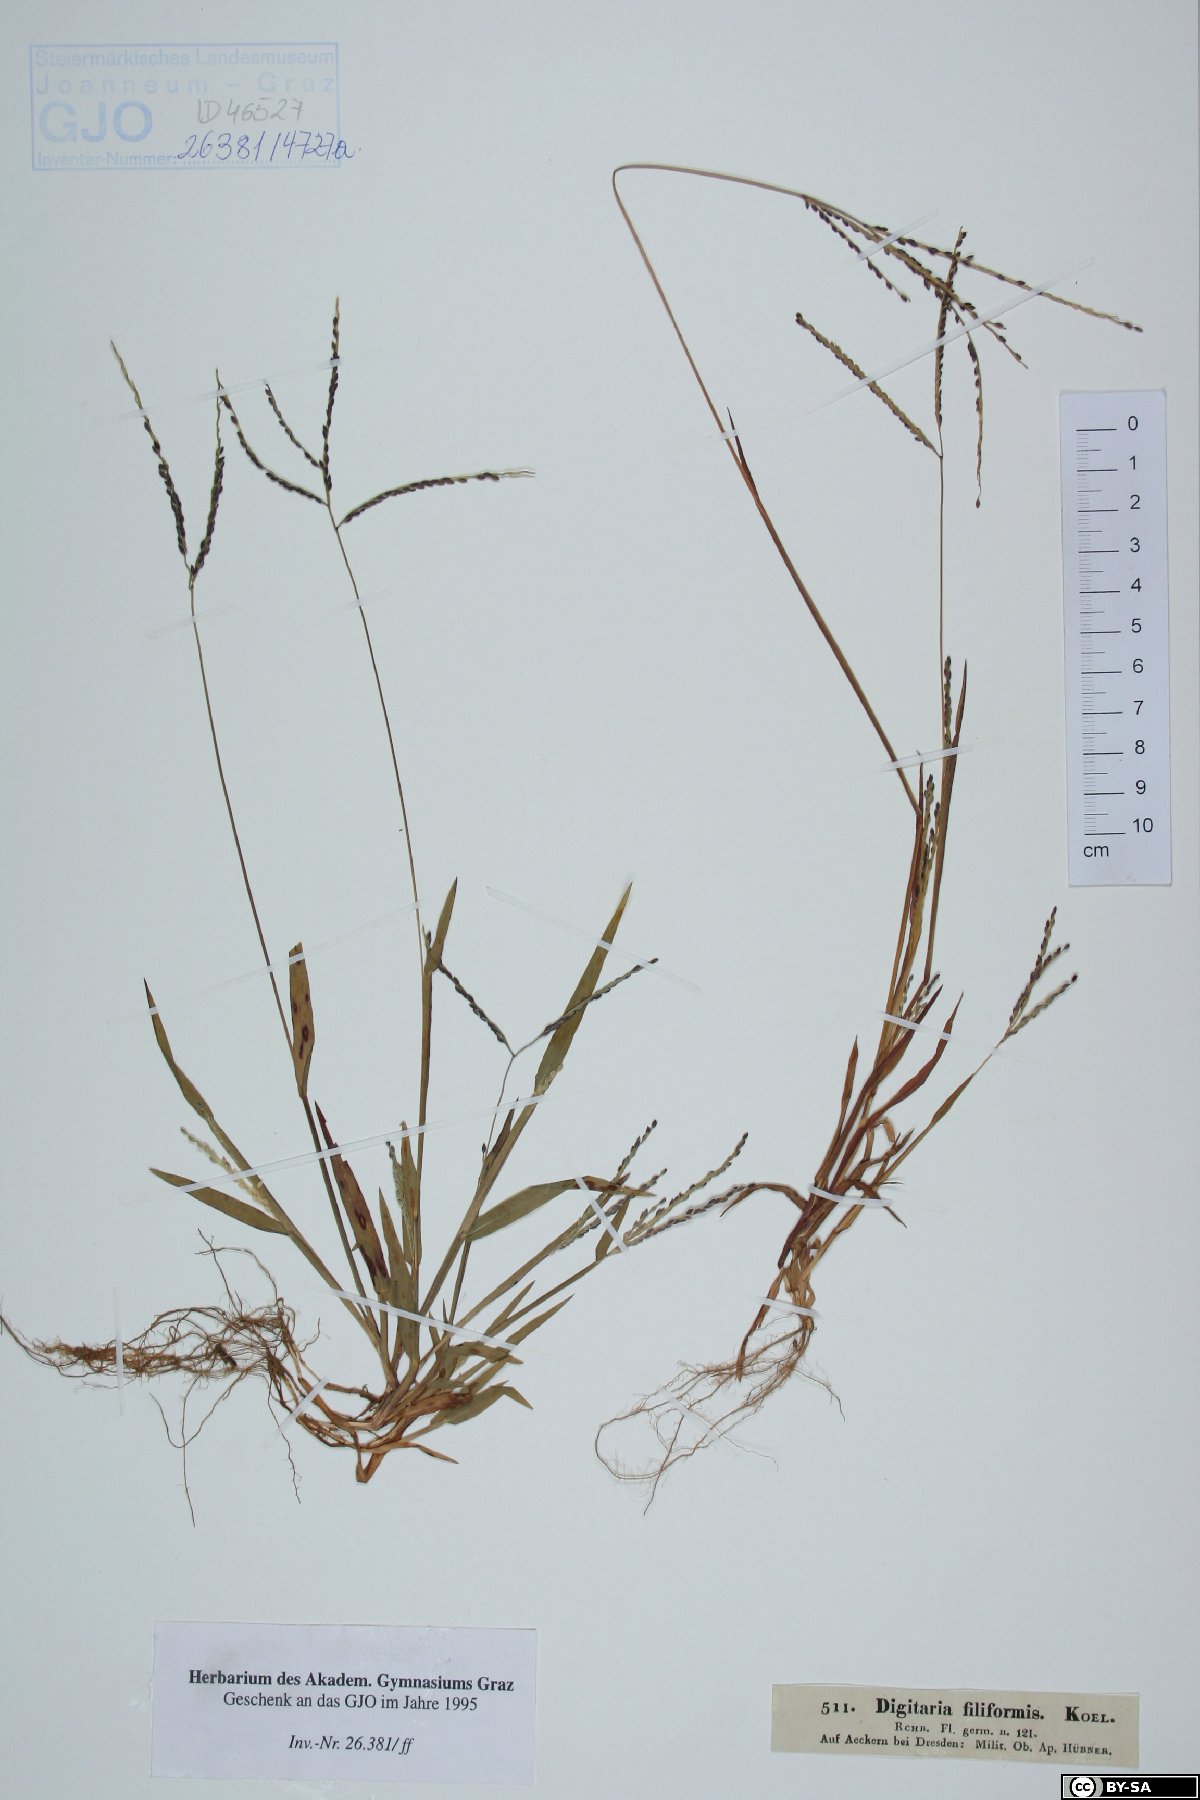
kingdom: Plantae
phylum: Tracheophyta
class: Liliopsida
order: Poales
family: Poaceae
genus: Digitaria
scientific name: Digitaria filiformis
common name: Slender crabgrass
